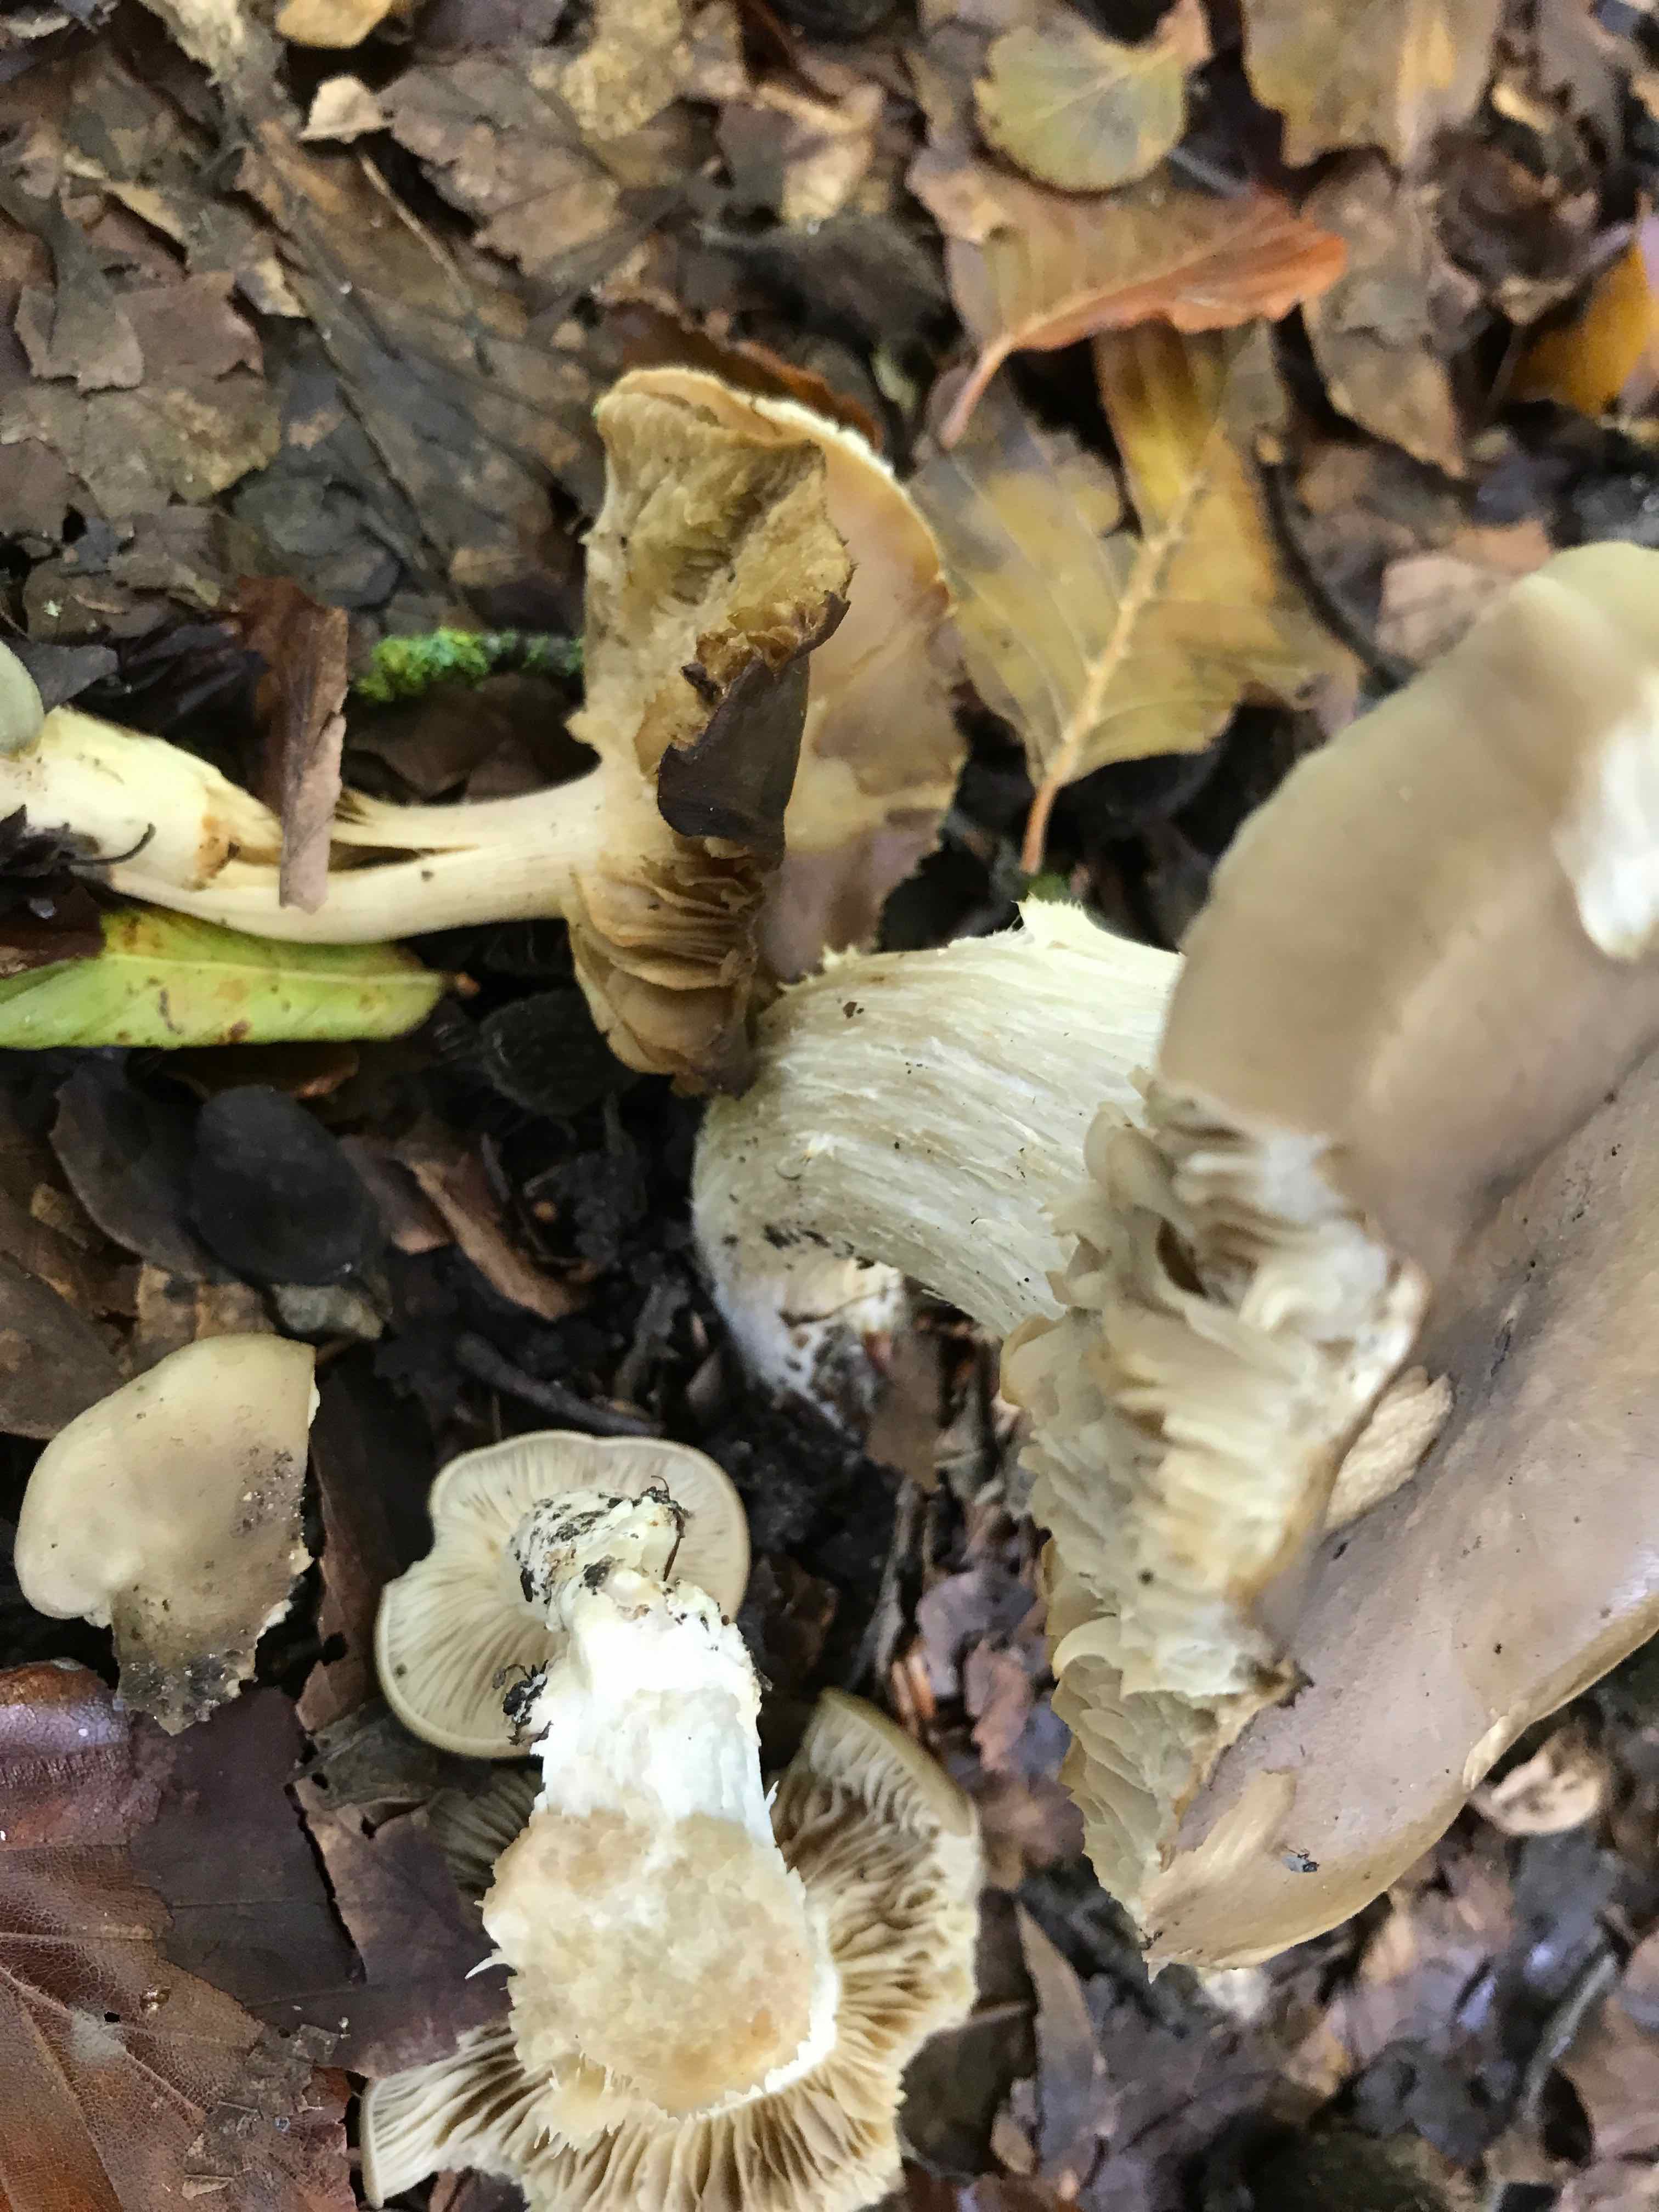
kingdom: Fungi
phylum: Basidiomycota
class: Agaricomycetes
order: Agaricales
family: Lyophyllaceae
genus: Lyophyllum
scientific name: Lyophyllum decastes
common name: Clustered domecap
